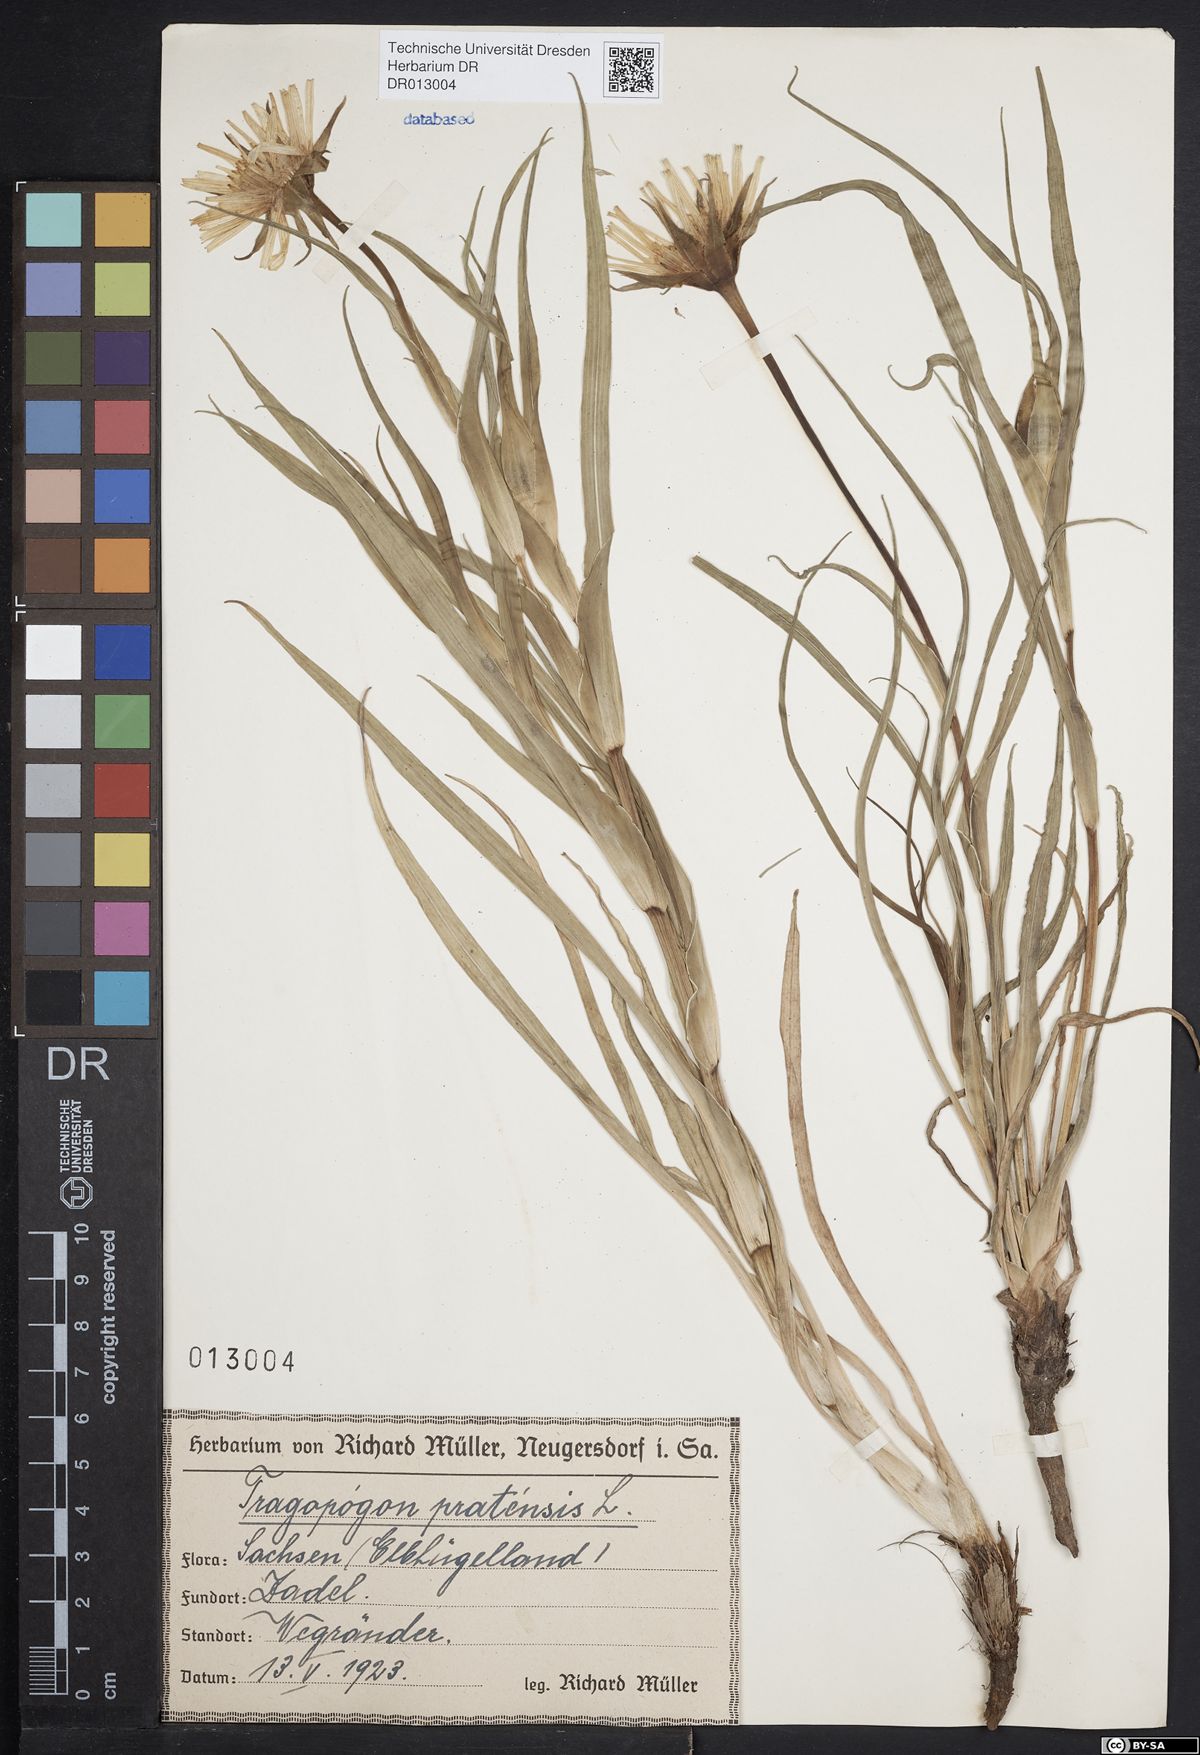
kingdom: Plantae
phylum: Tracheophyta
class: Magnoliopsida
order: Asterales
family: Asteraceae
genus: Tragopogon
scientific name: Tragopogon pratensis
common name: Goat's-beard
